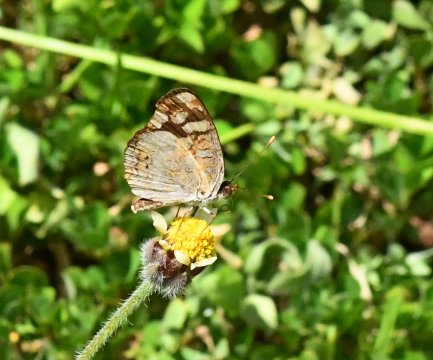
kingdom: Animalia
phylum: Arthropoda
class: Insecta
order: Lepidoptera
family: Nymphalidae
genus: Phyciodes
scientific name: Phyciodes picta
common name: Painted Crescent
